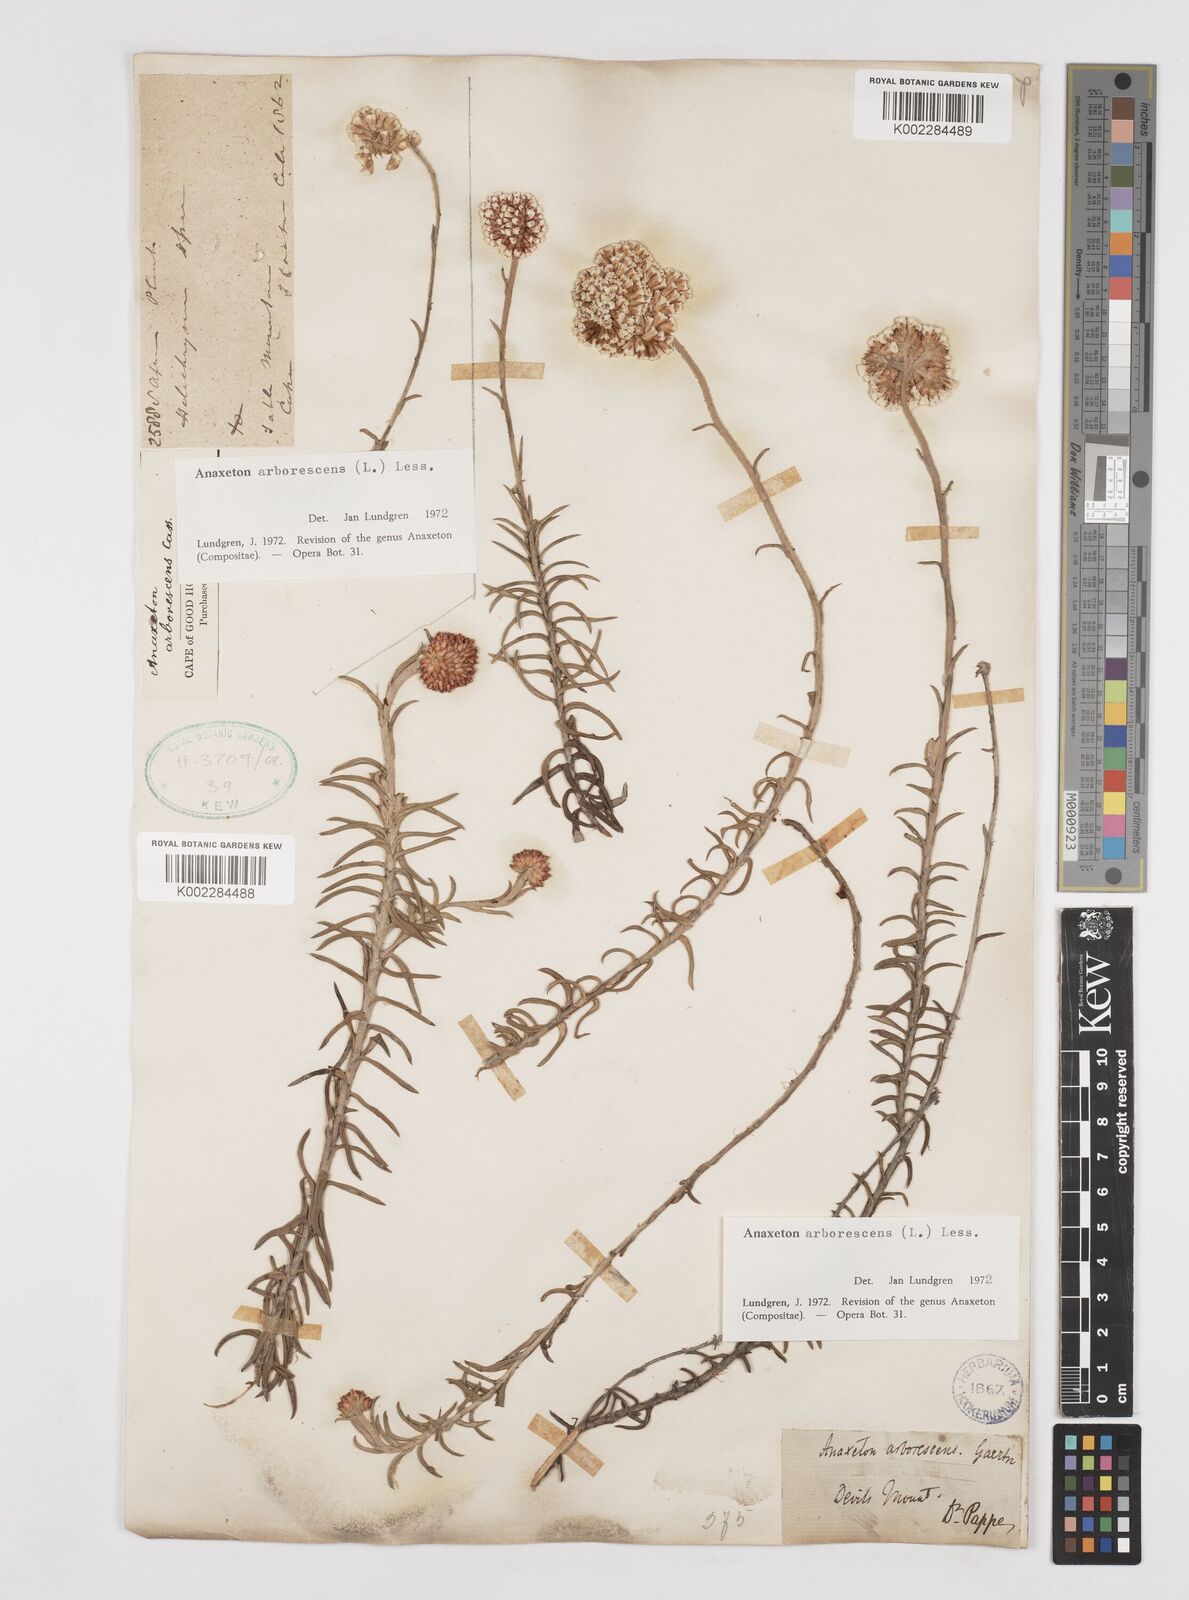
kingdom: Plantae
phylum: Tracheophyta
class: Magnoliopsida
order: Asterales
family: Asteraceae
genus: Anaxeton
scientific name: Anaxeton arborescens
